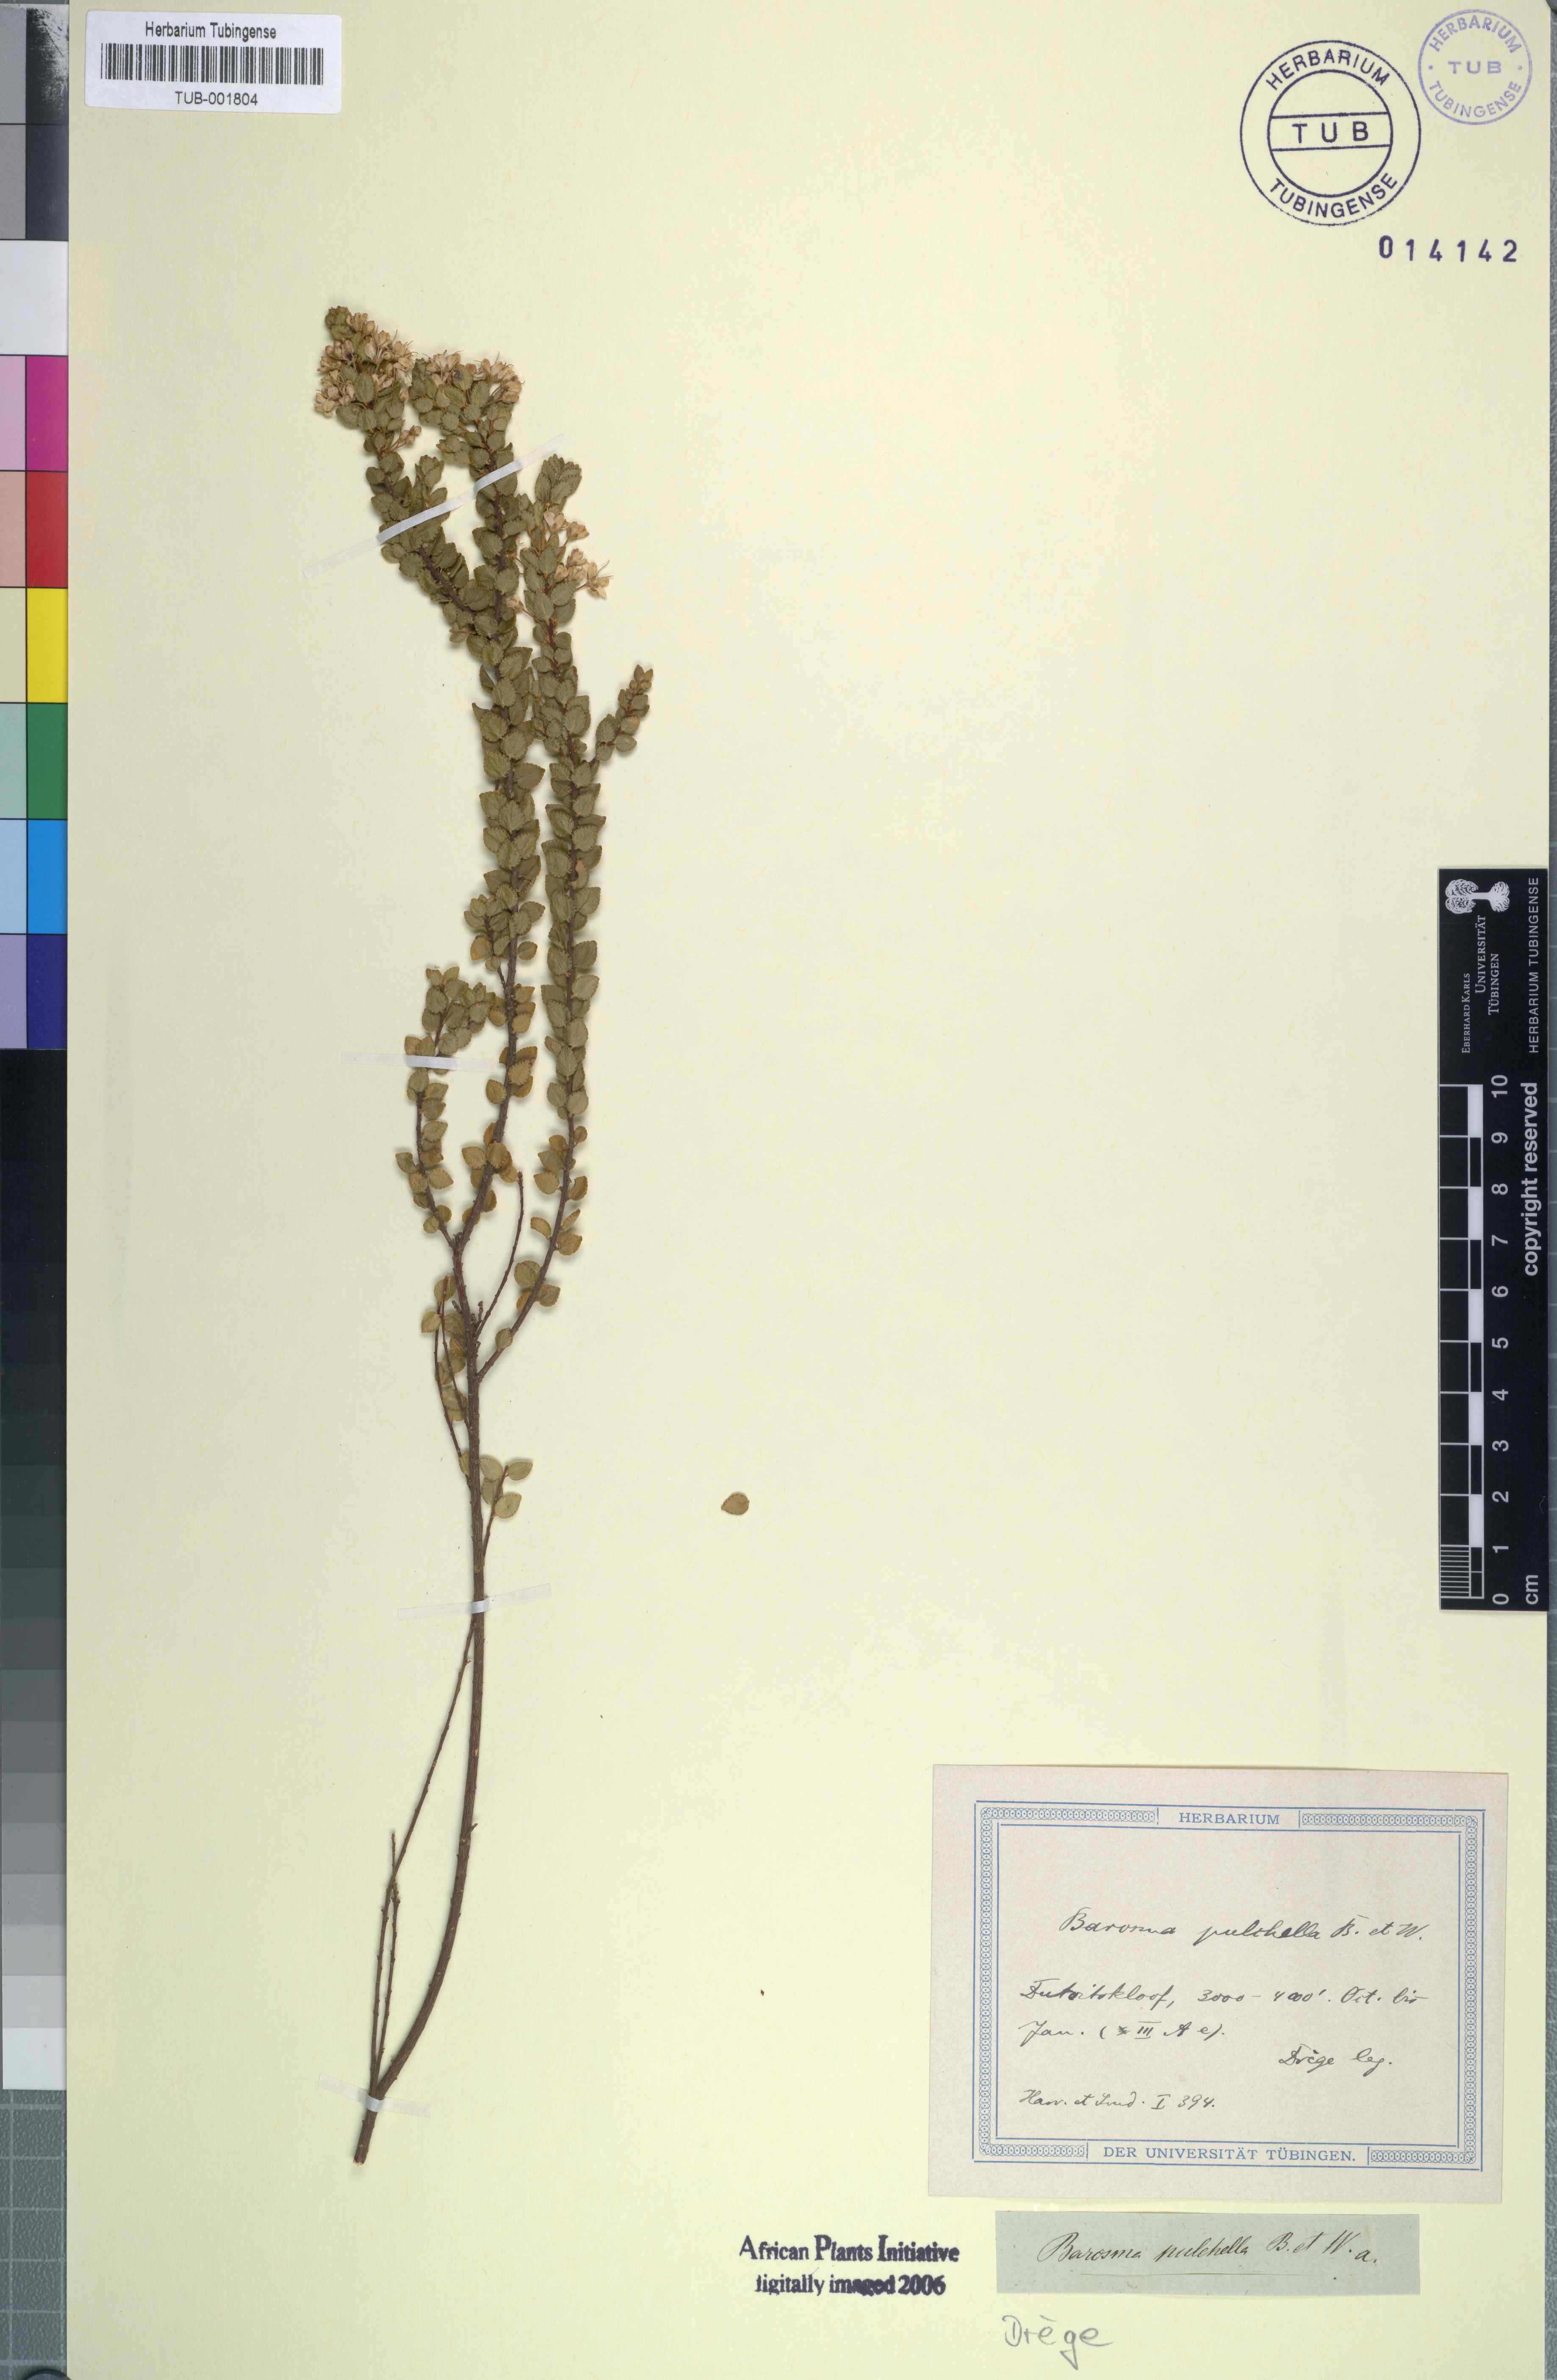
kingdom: Plantae
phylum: Tracheophyta
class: Magnoliopsida
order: Sapindales
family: Rutaceae
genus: Agathosma
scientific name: Agathosma pulchella
